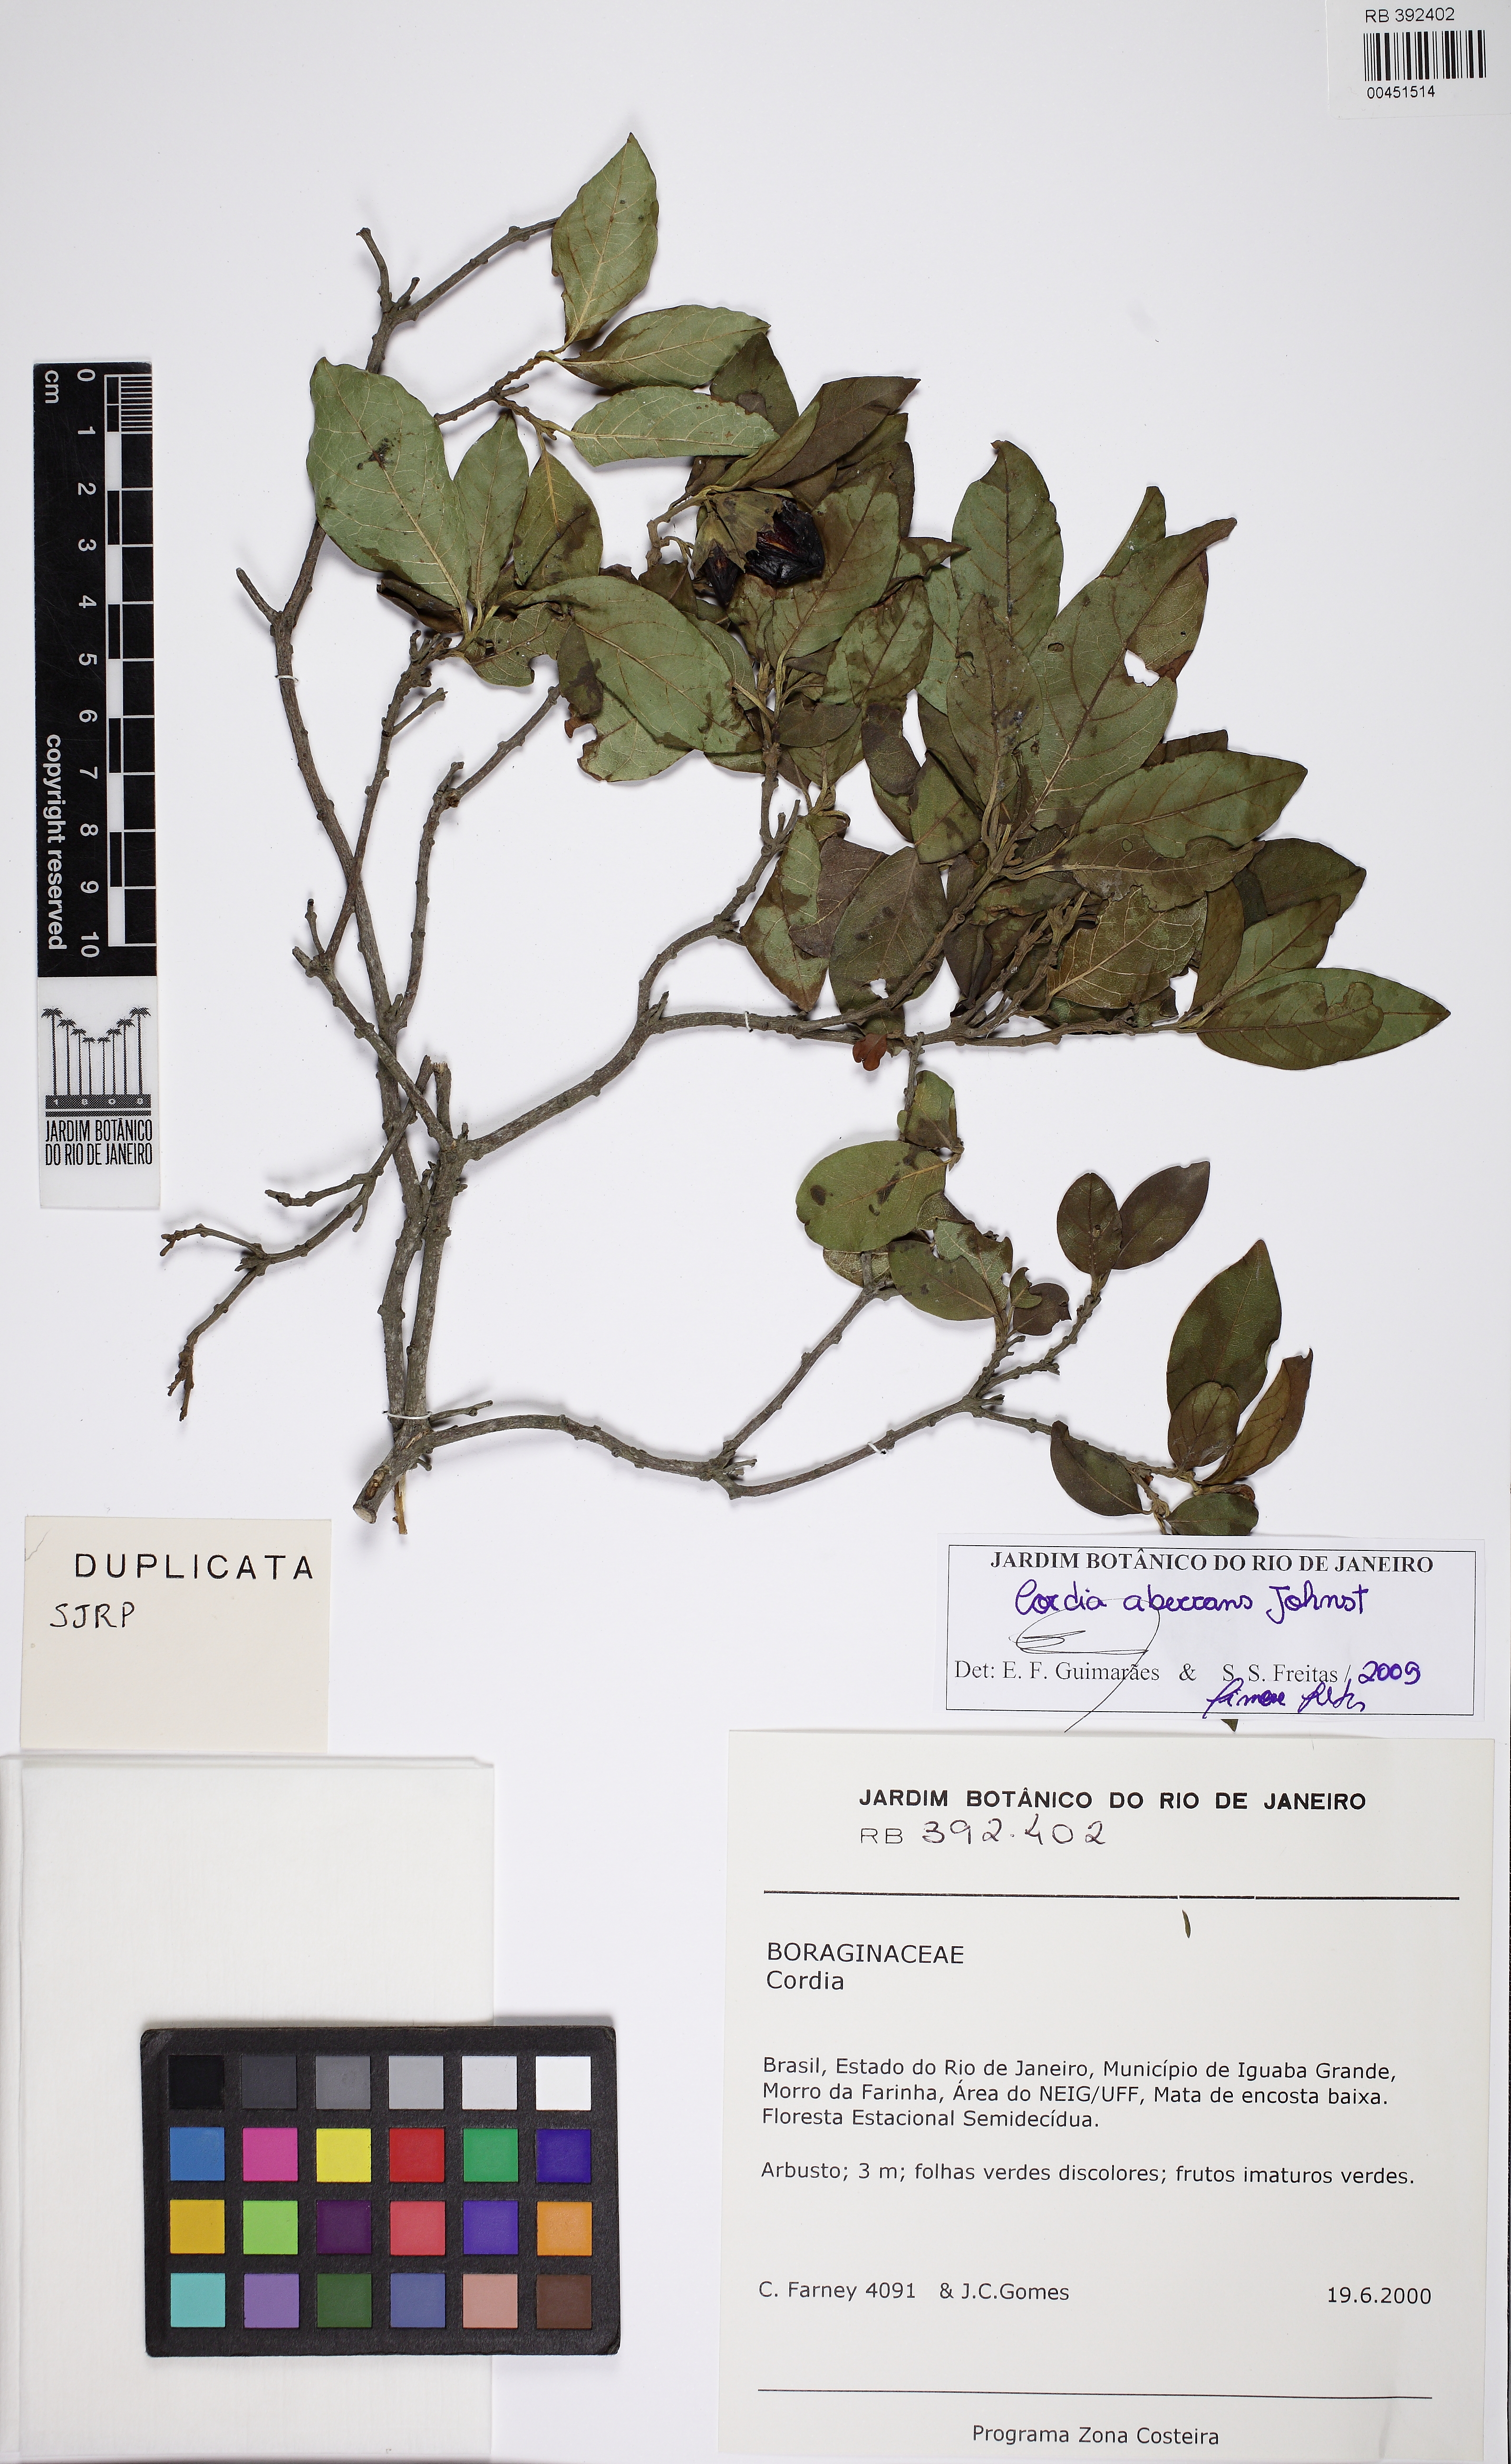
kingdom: Plantae
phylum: Tracheophyta
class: Magnoliopsida
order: Boraginales
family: Cordiaceae
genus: Cordia
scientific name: Cordia aberrans
